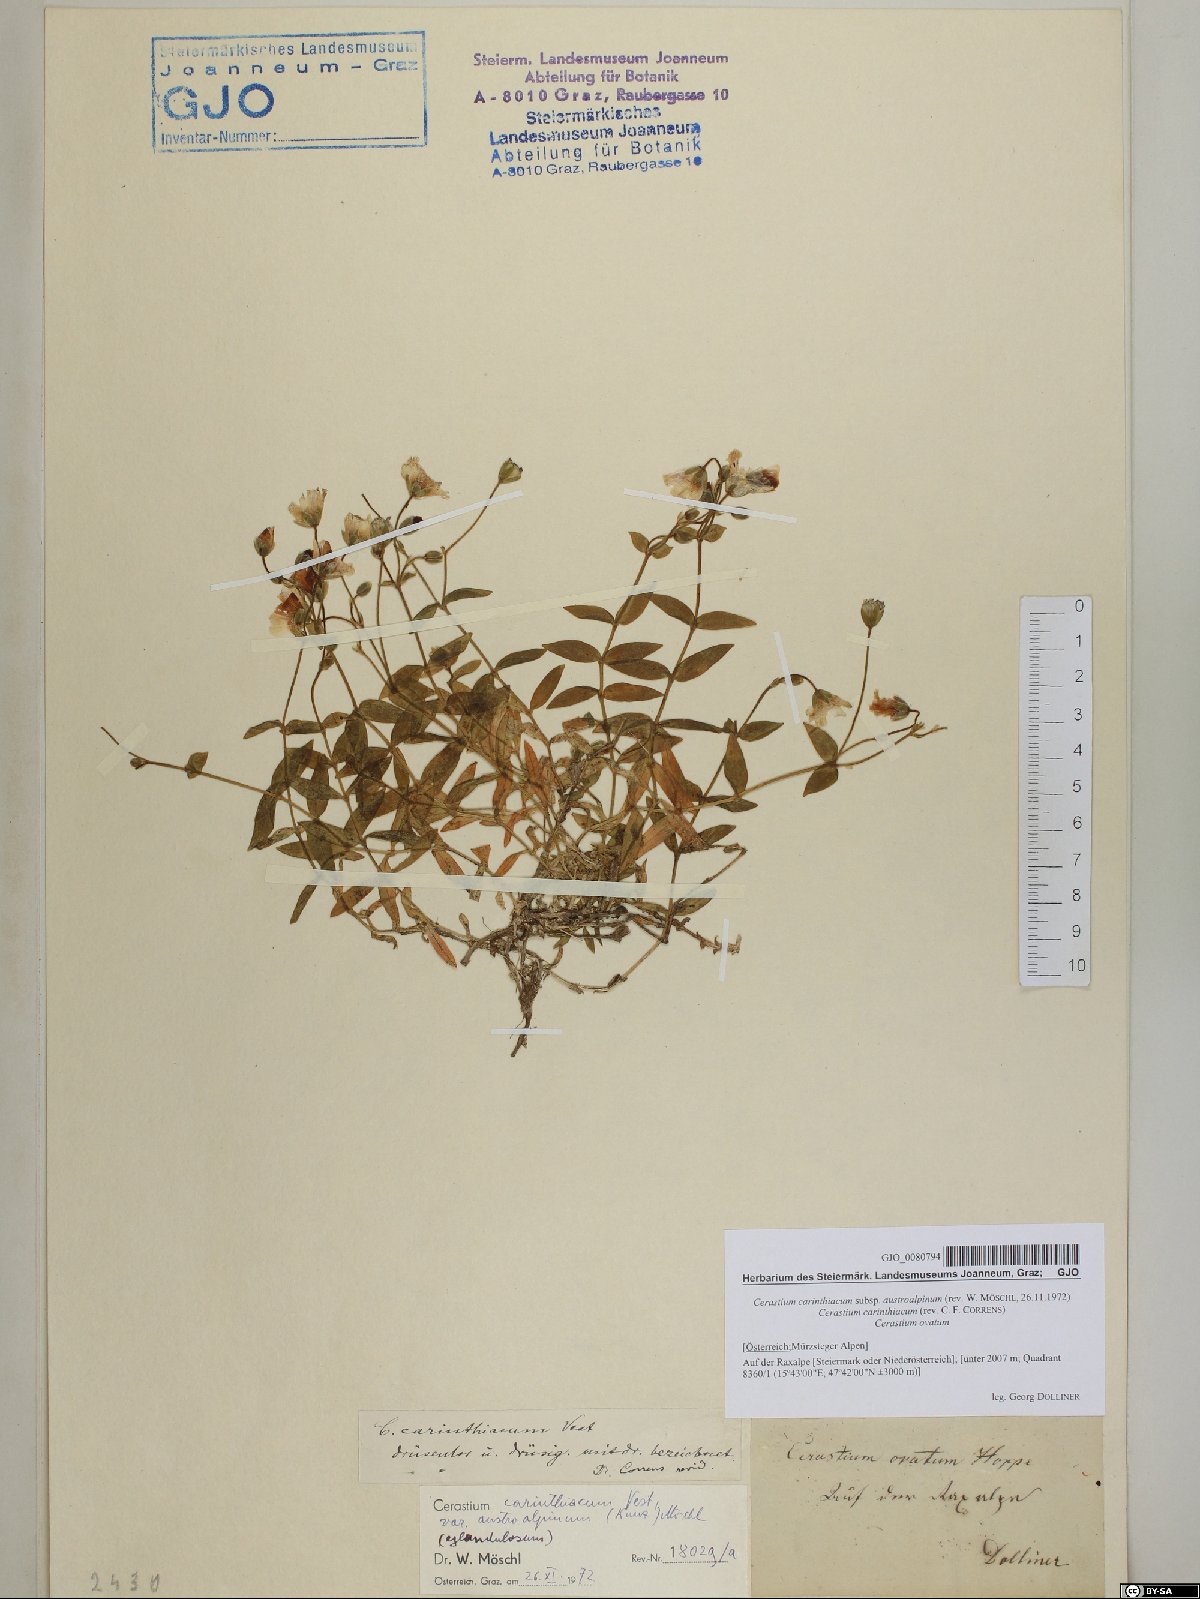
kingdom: Plantae
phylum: Tracheophyta
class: Magnoliopsida
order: Caryophyllales
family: Caryophyllaceae
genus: Cerastium
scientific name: Cerastium carinthiacum
